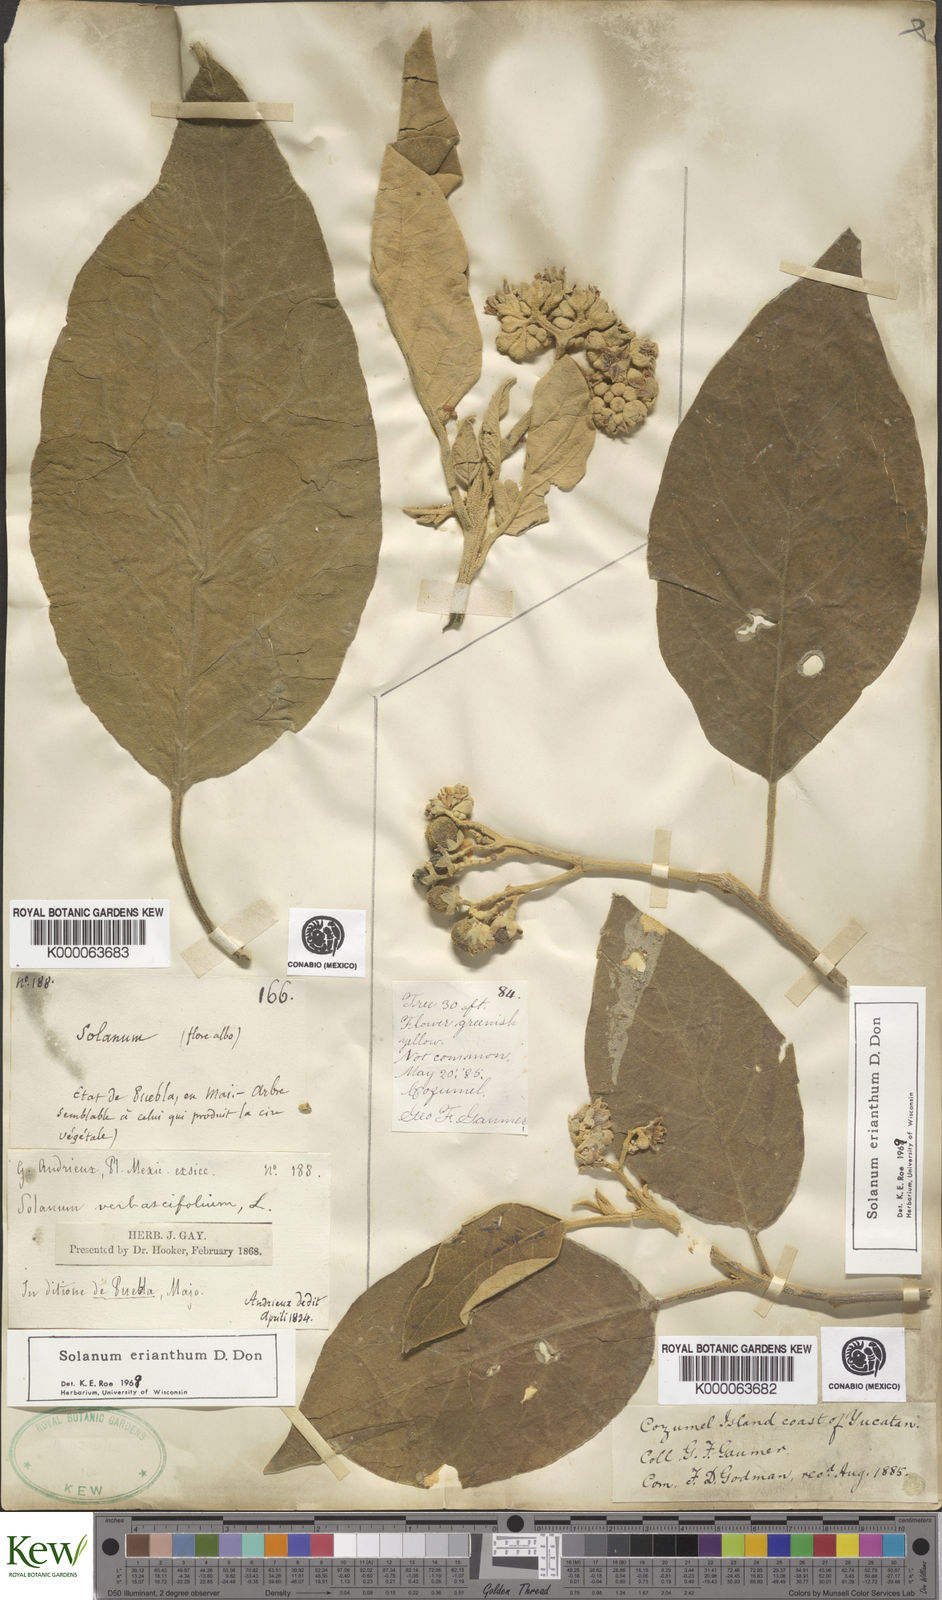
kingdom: Plantae
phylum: Tracheophyta
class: Magnoliopsida
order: Solanales
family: Solanaceae
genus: Solanum
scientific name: Solanum erianthum
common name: Tobacco-tree
